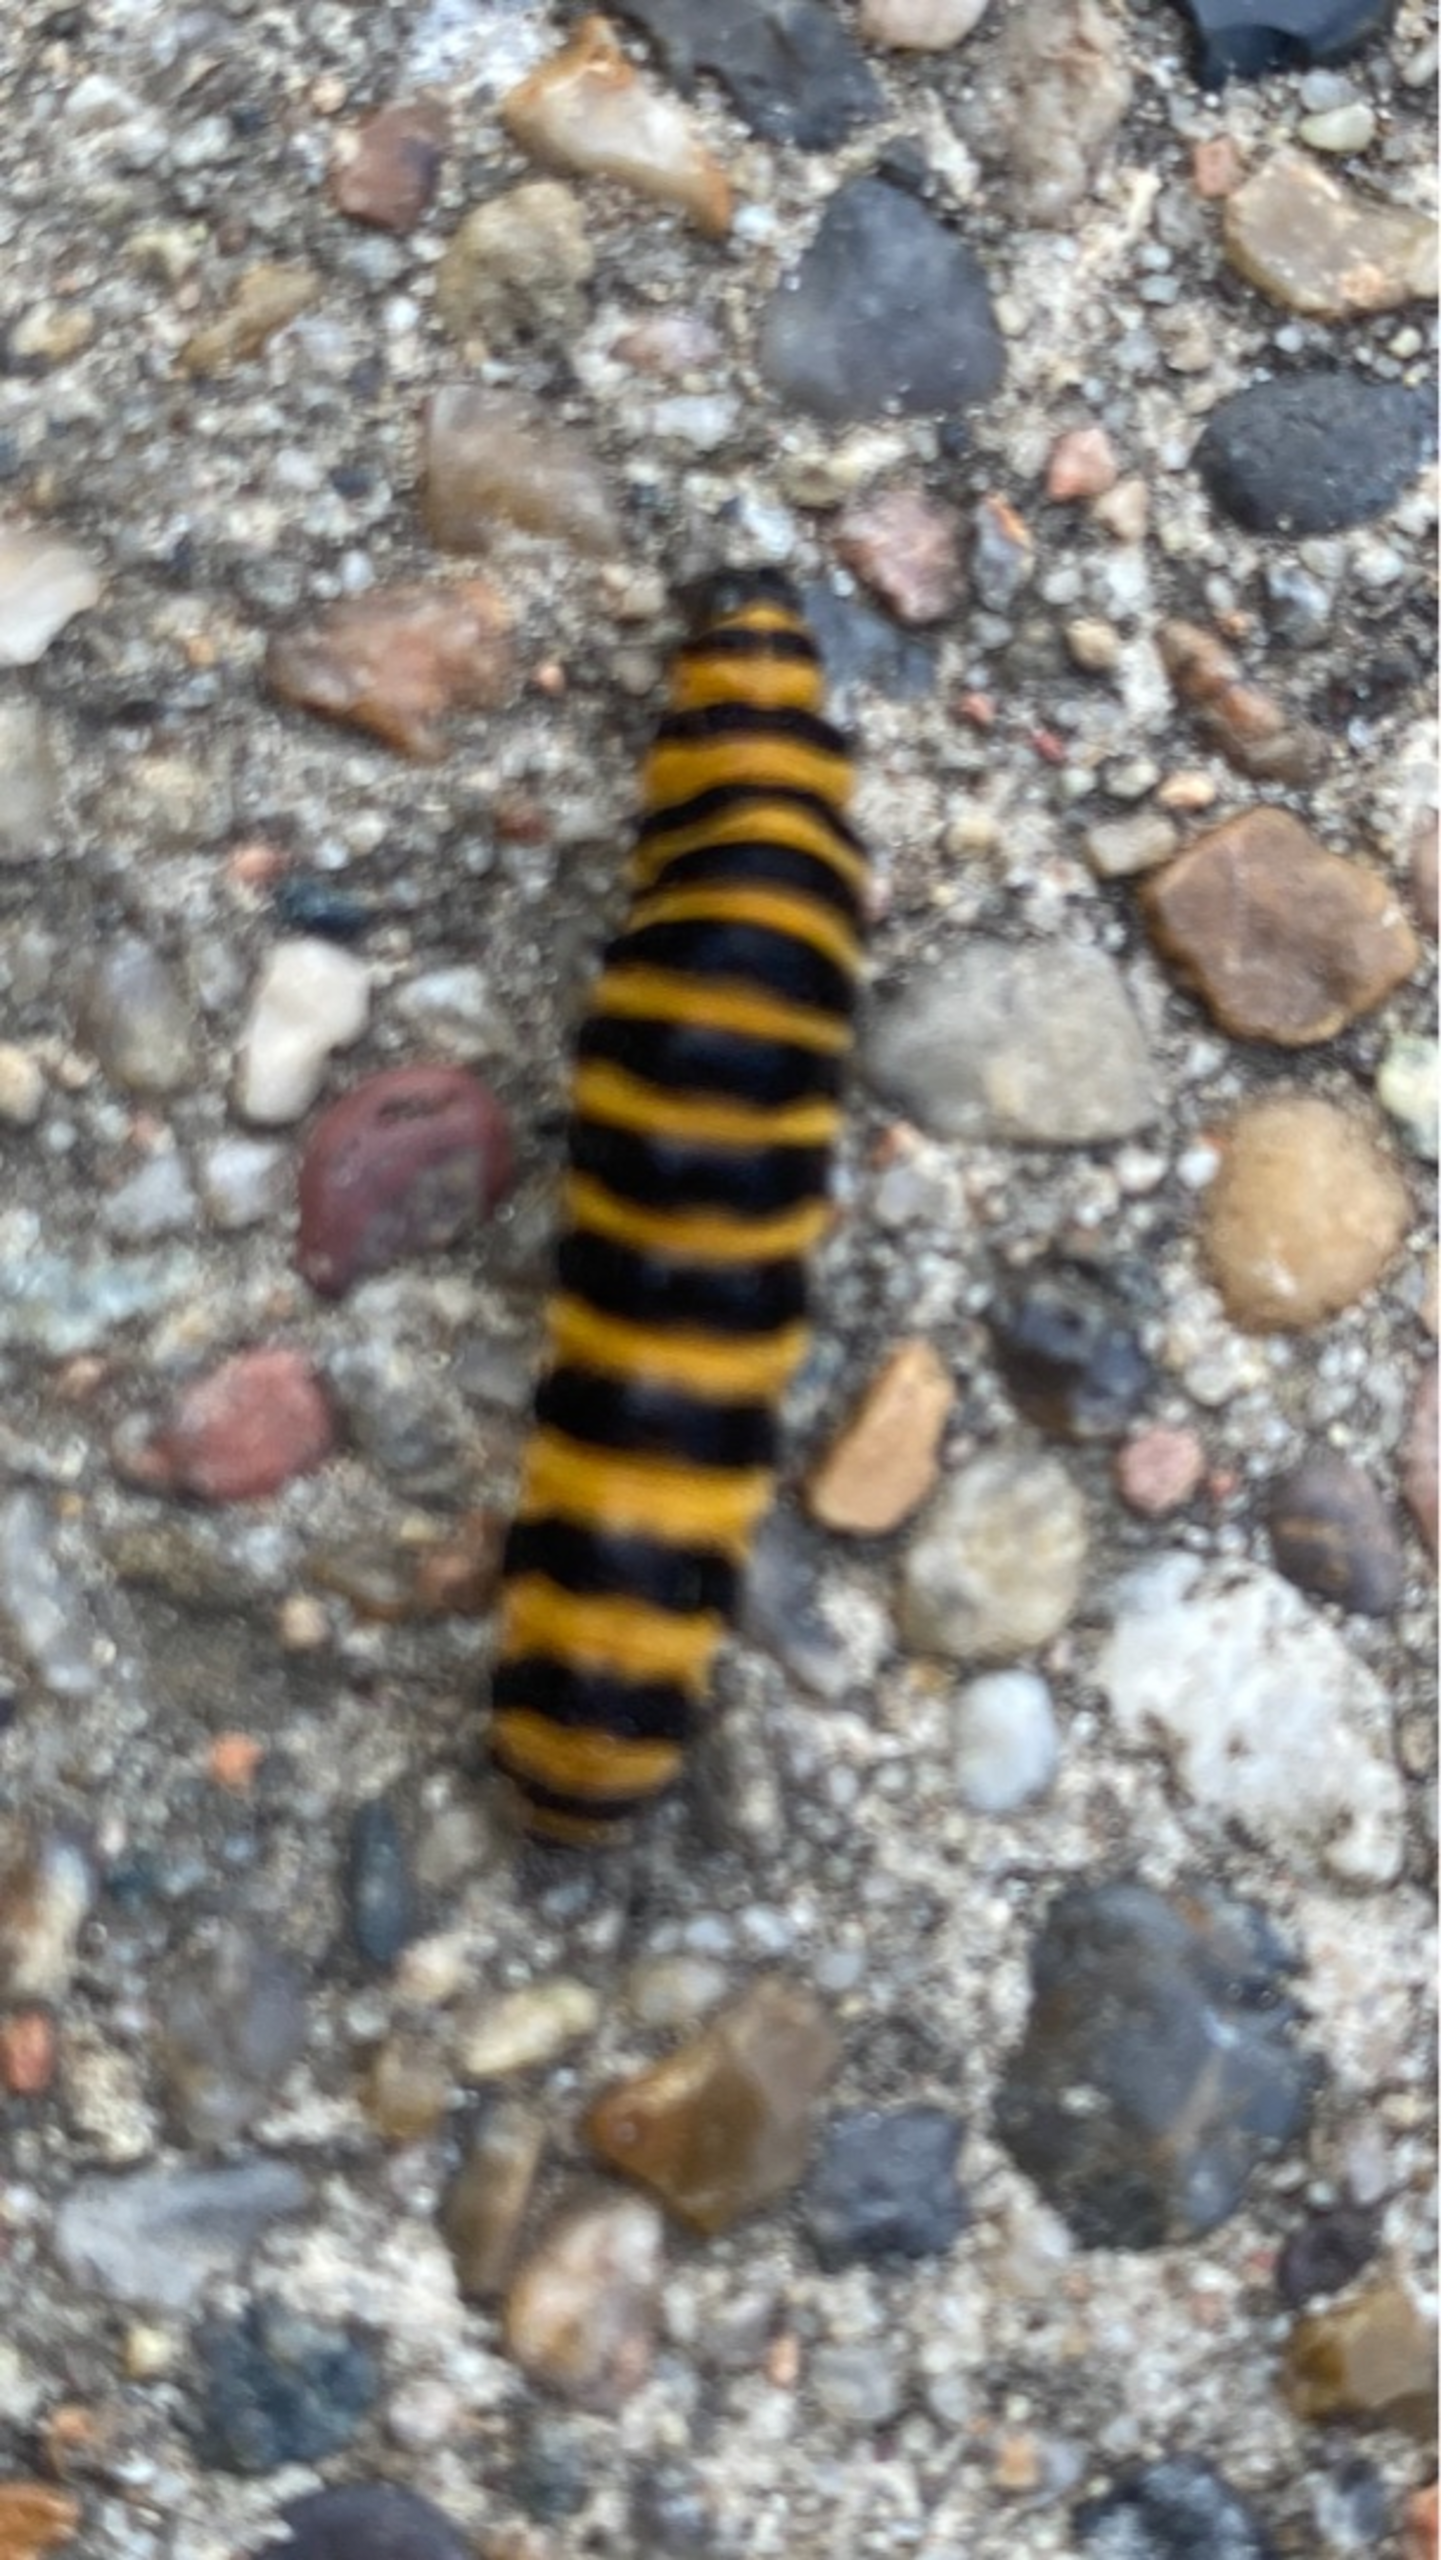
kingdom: Animalia
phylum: Arthropoda
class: Insecta
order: Lepidoptera
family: Erebidae
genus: Tyria
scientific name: Tyria jacobaeae
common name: Blodplet
